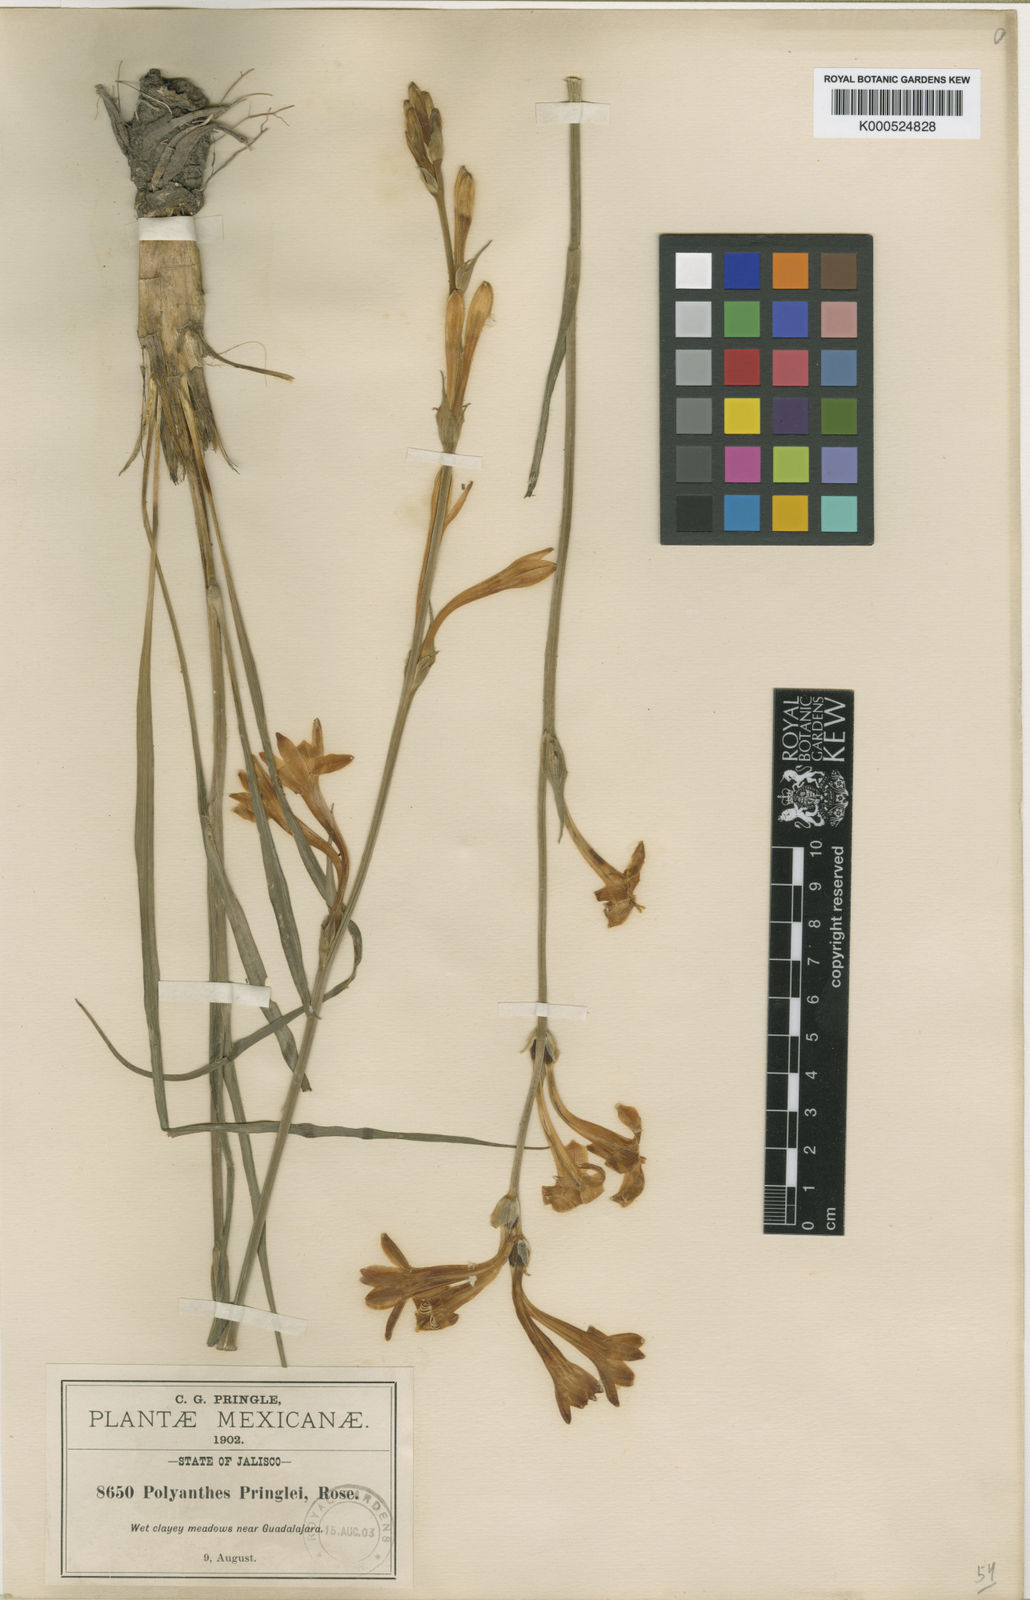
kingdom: Plantae
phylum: Tracheophyta
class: Liliopsida
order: Asparagales
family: Asparagaceae
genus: Agave
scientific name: Agave neopringlei
